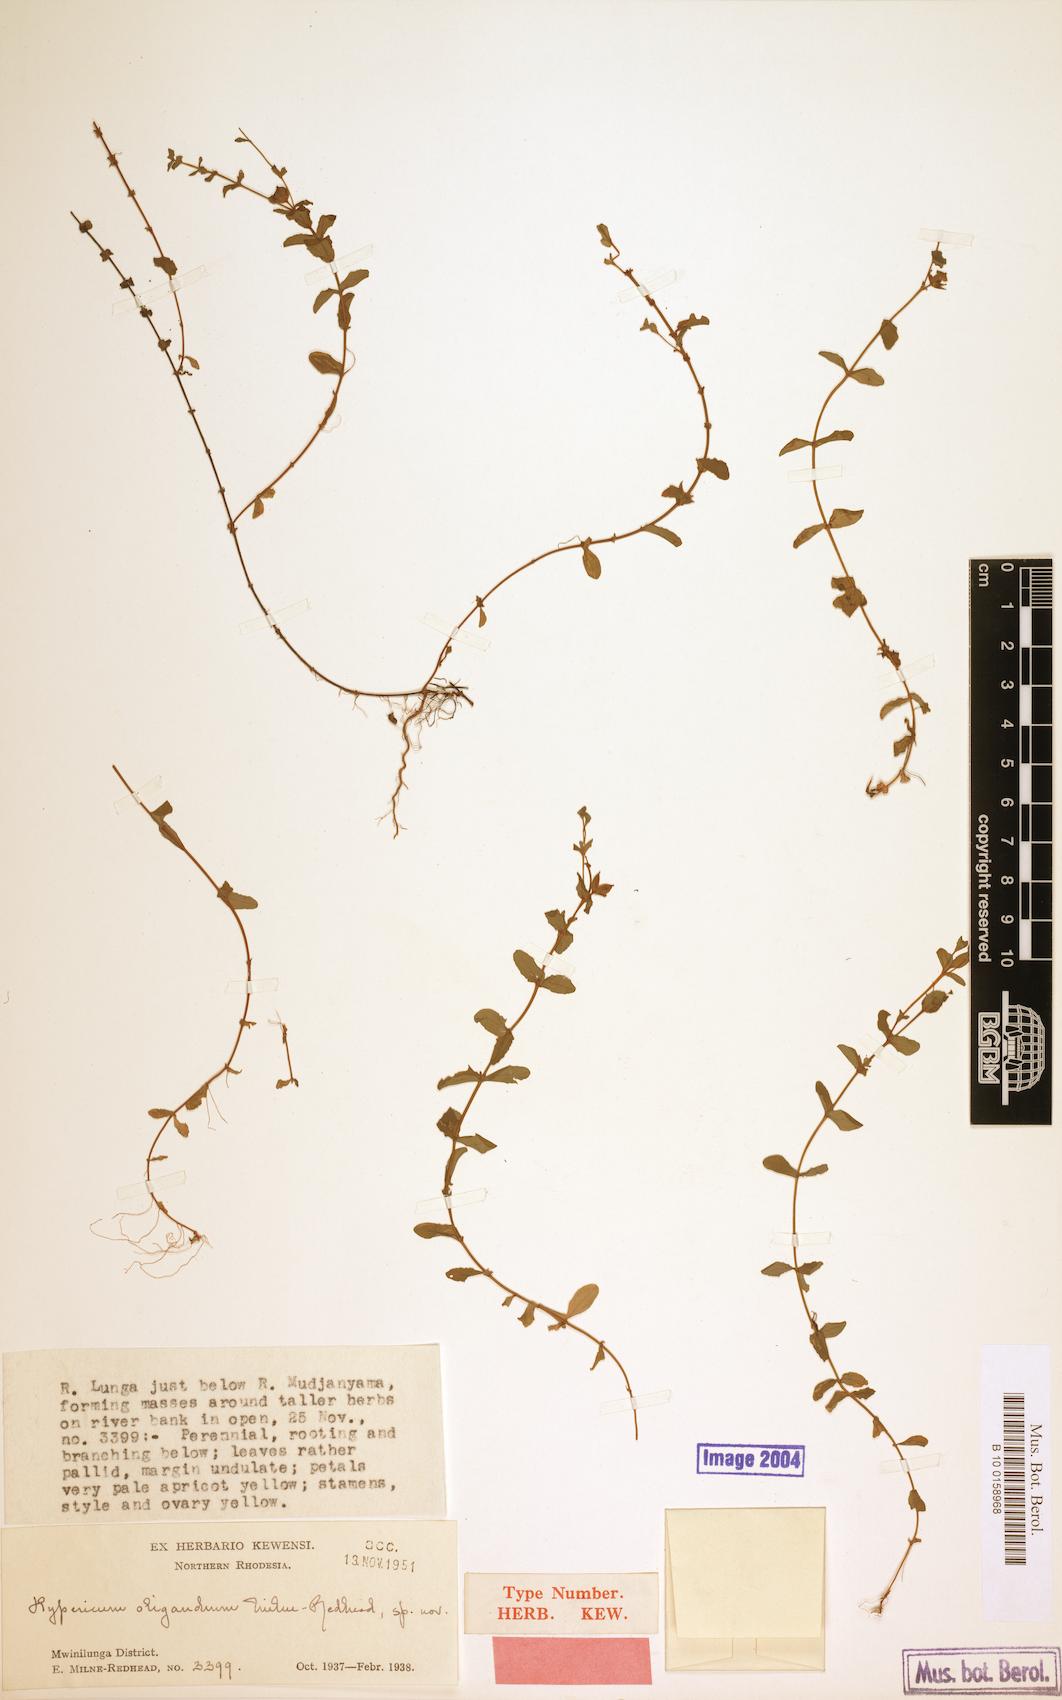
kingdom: Plantae
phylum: Tracheophyta
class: Magnoliopsida
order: Malpighiales
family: Hypericaceae
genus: Hypericum
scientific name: Hypericum oligandrum
